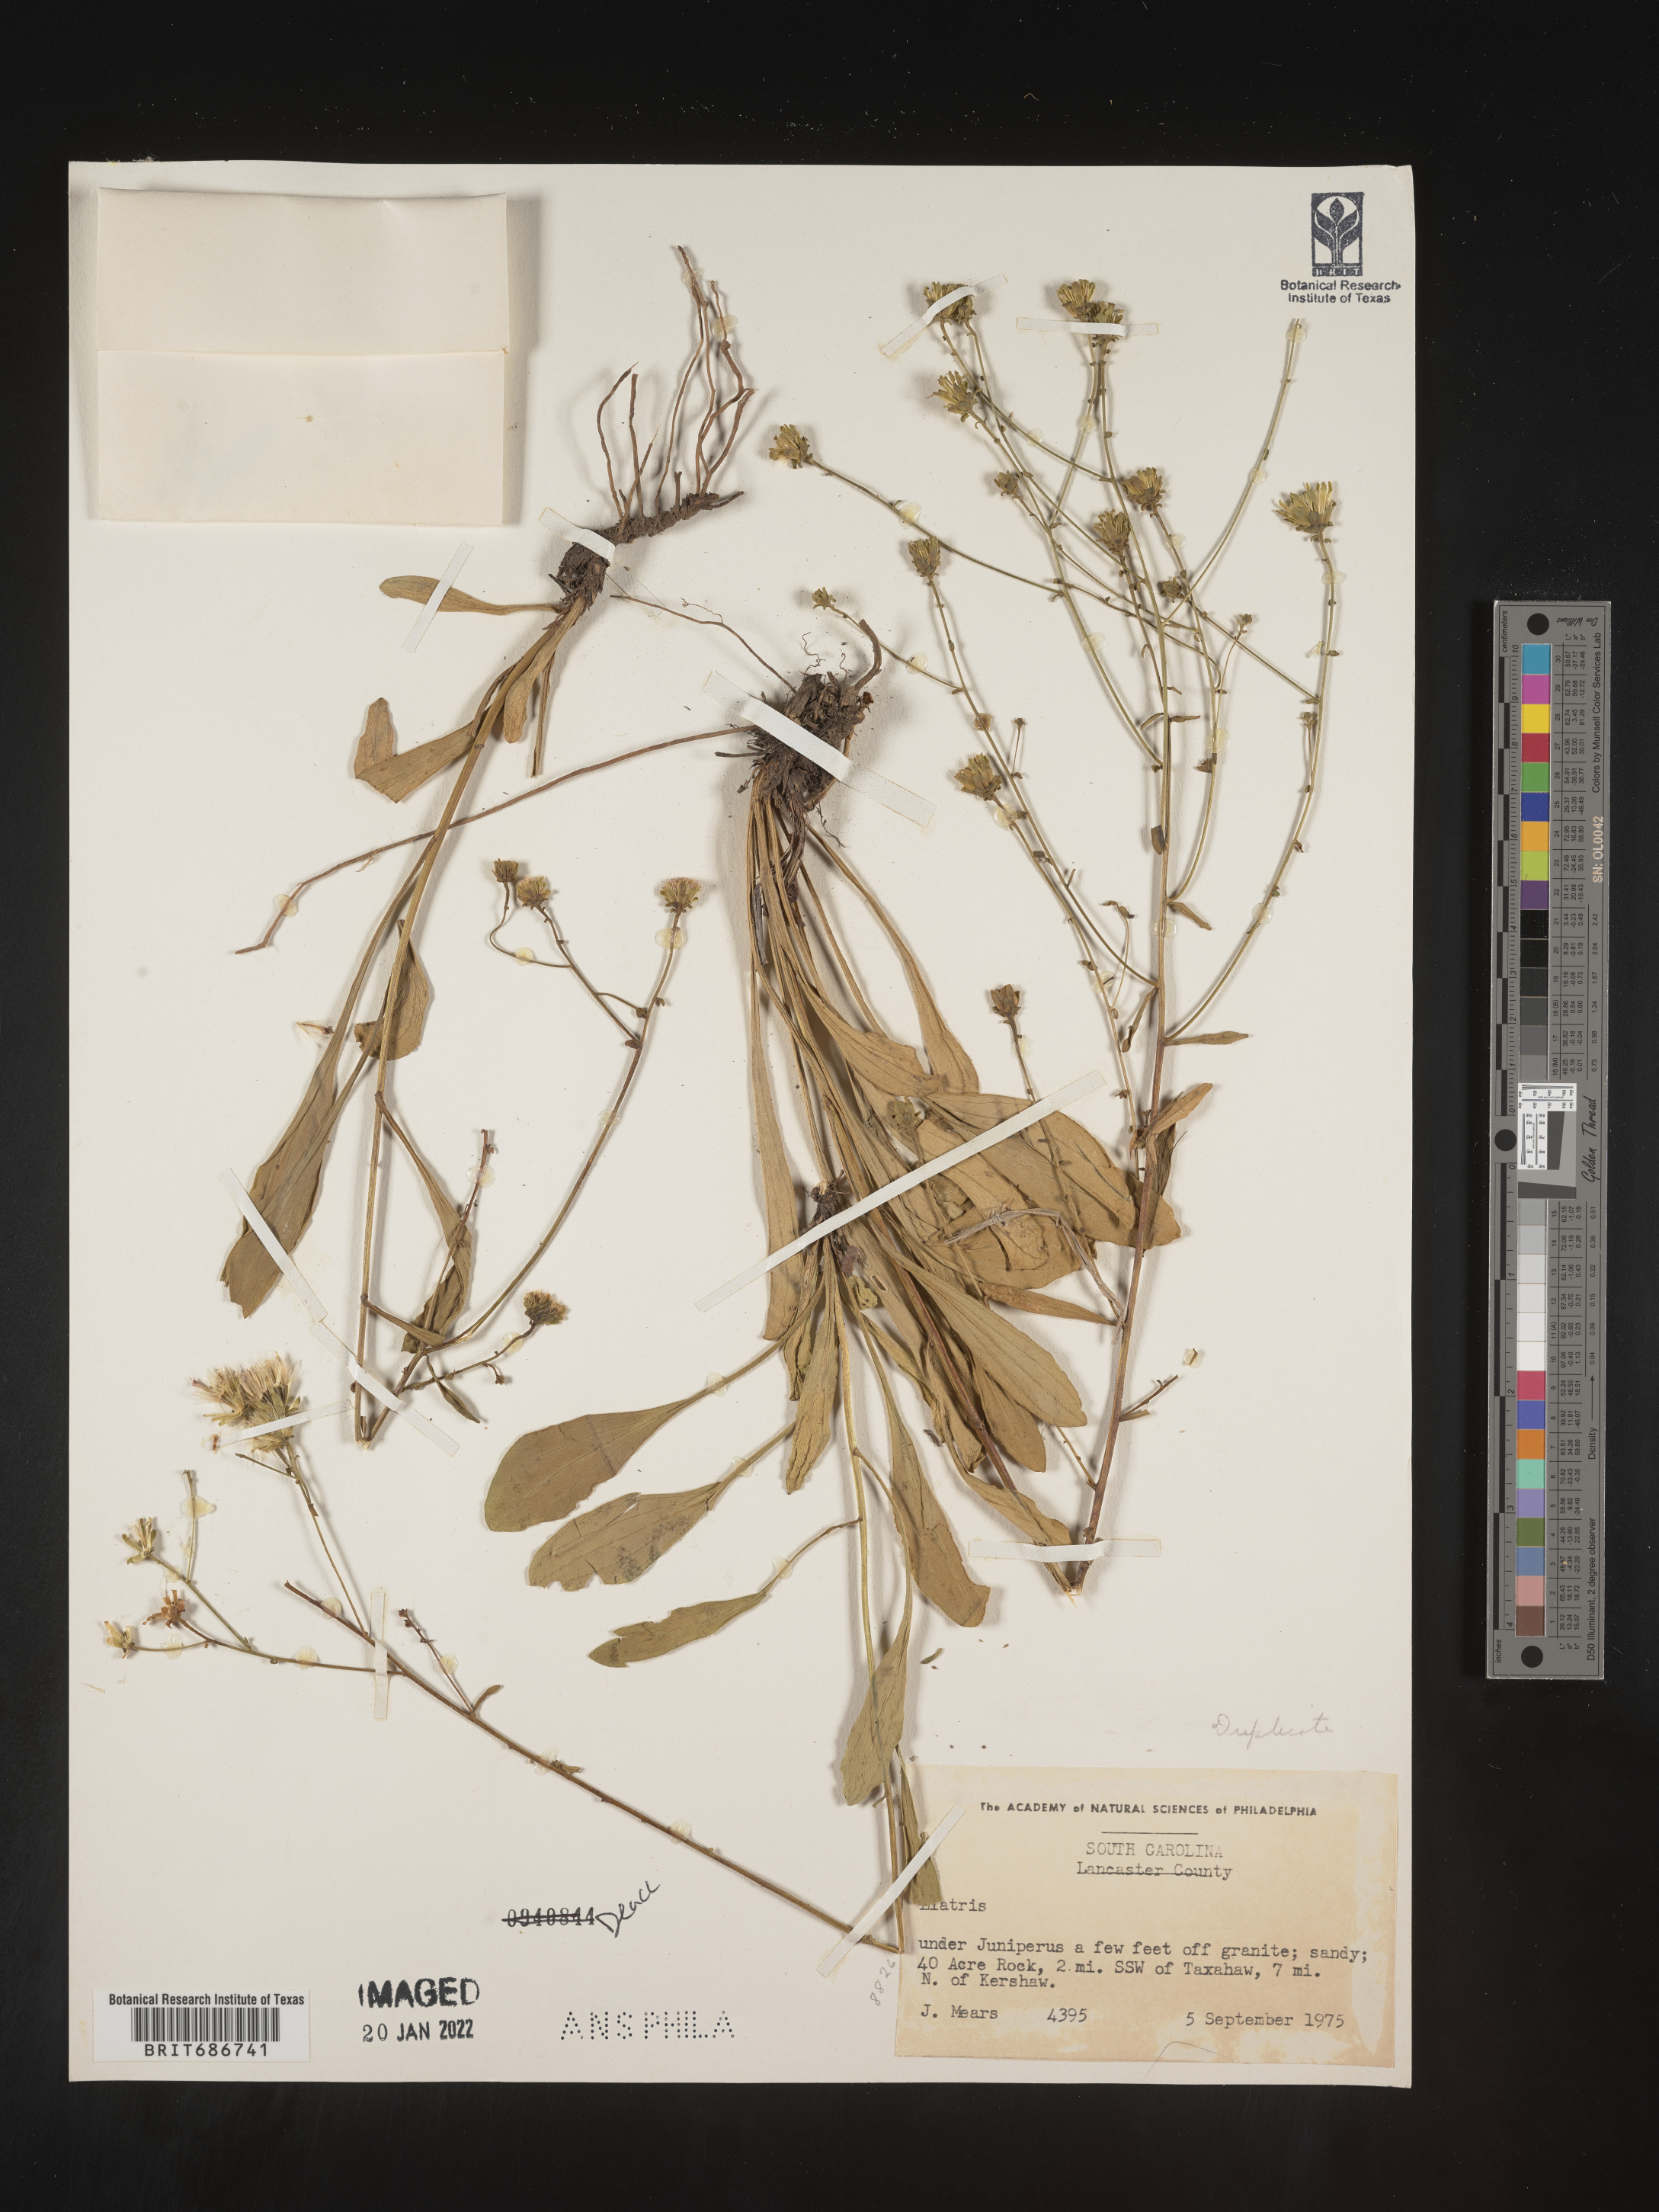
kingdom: Plantae
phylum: Tracheophyta
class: Magnoliopsida
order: Asterales
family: Asteraceae
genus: Carphephorus
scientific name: Carphephorus bellidifolius
